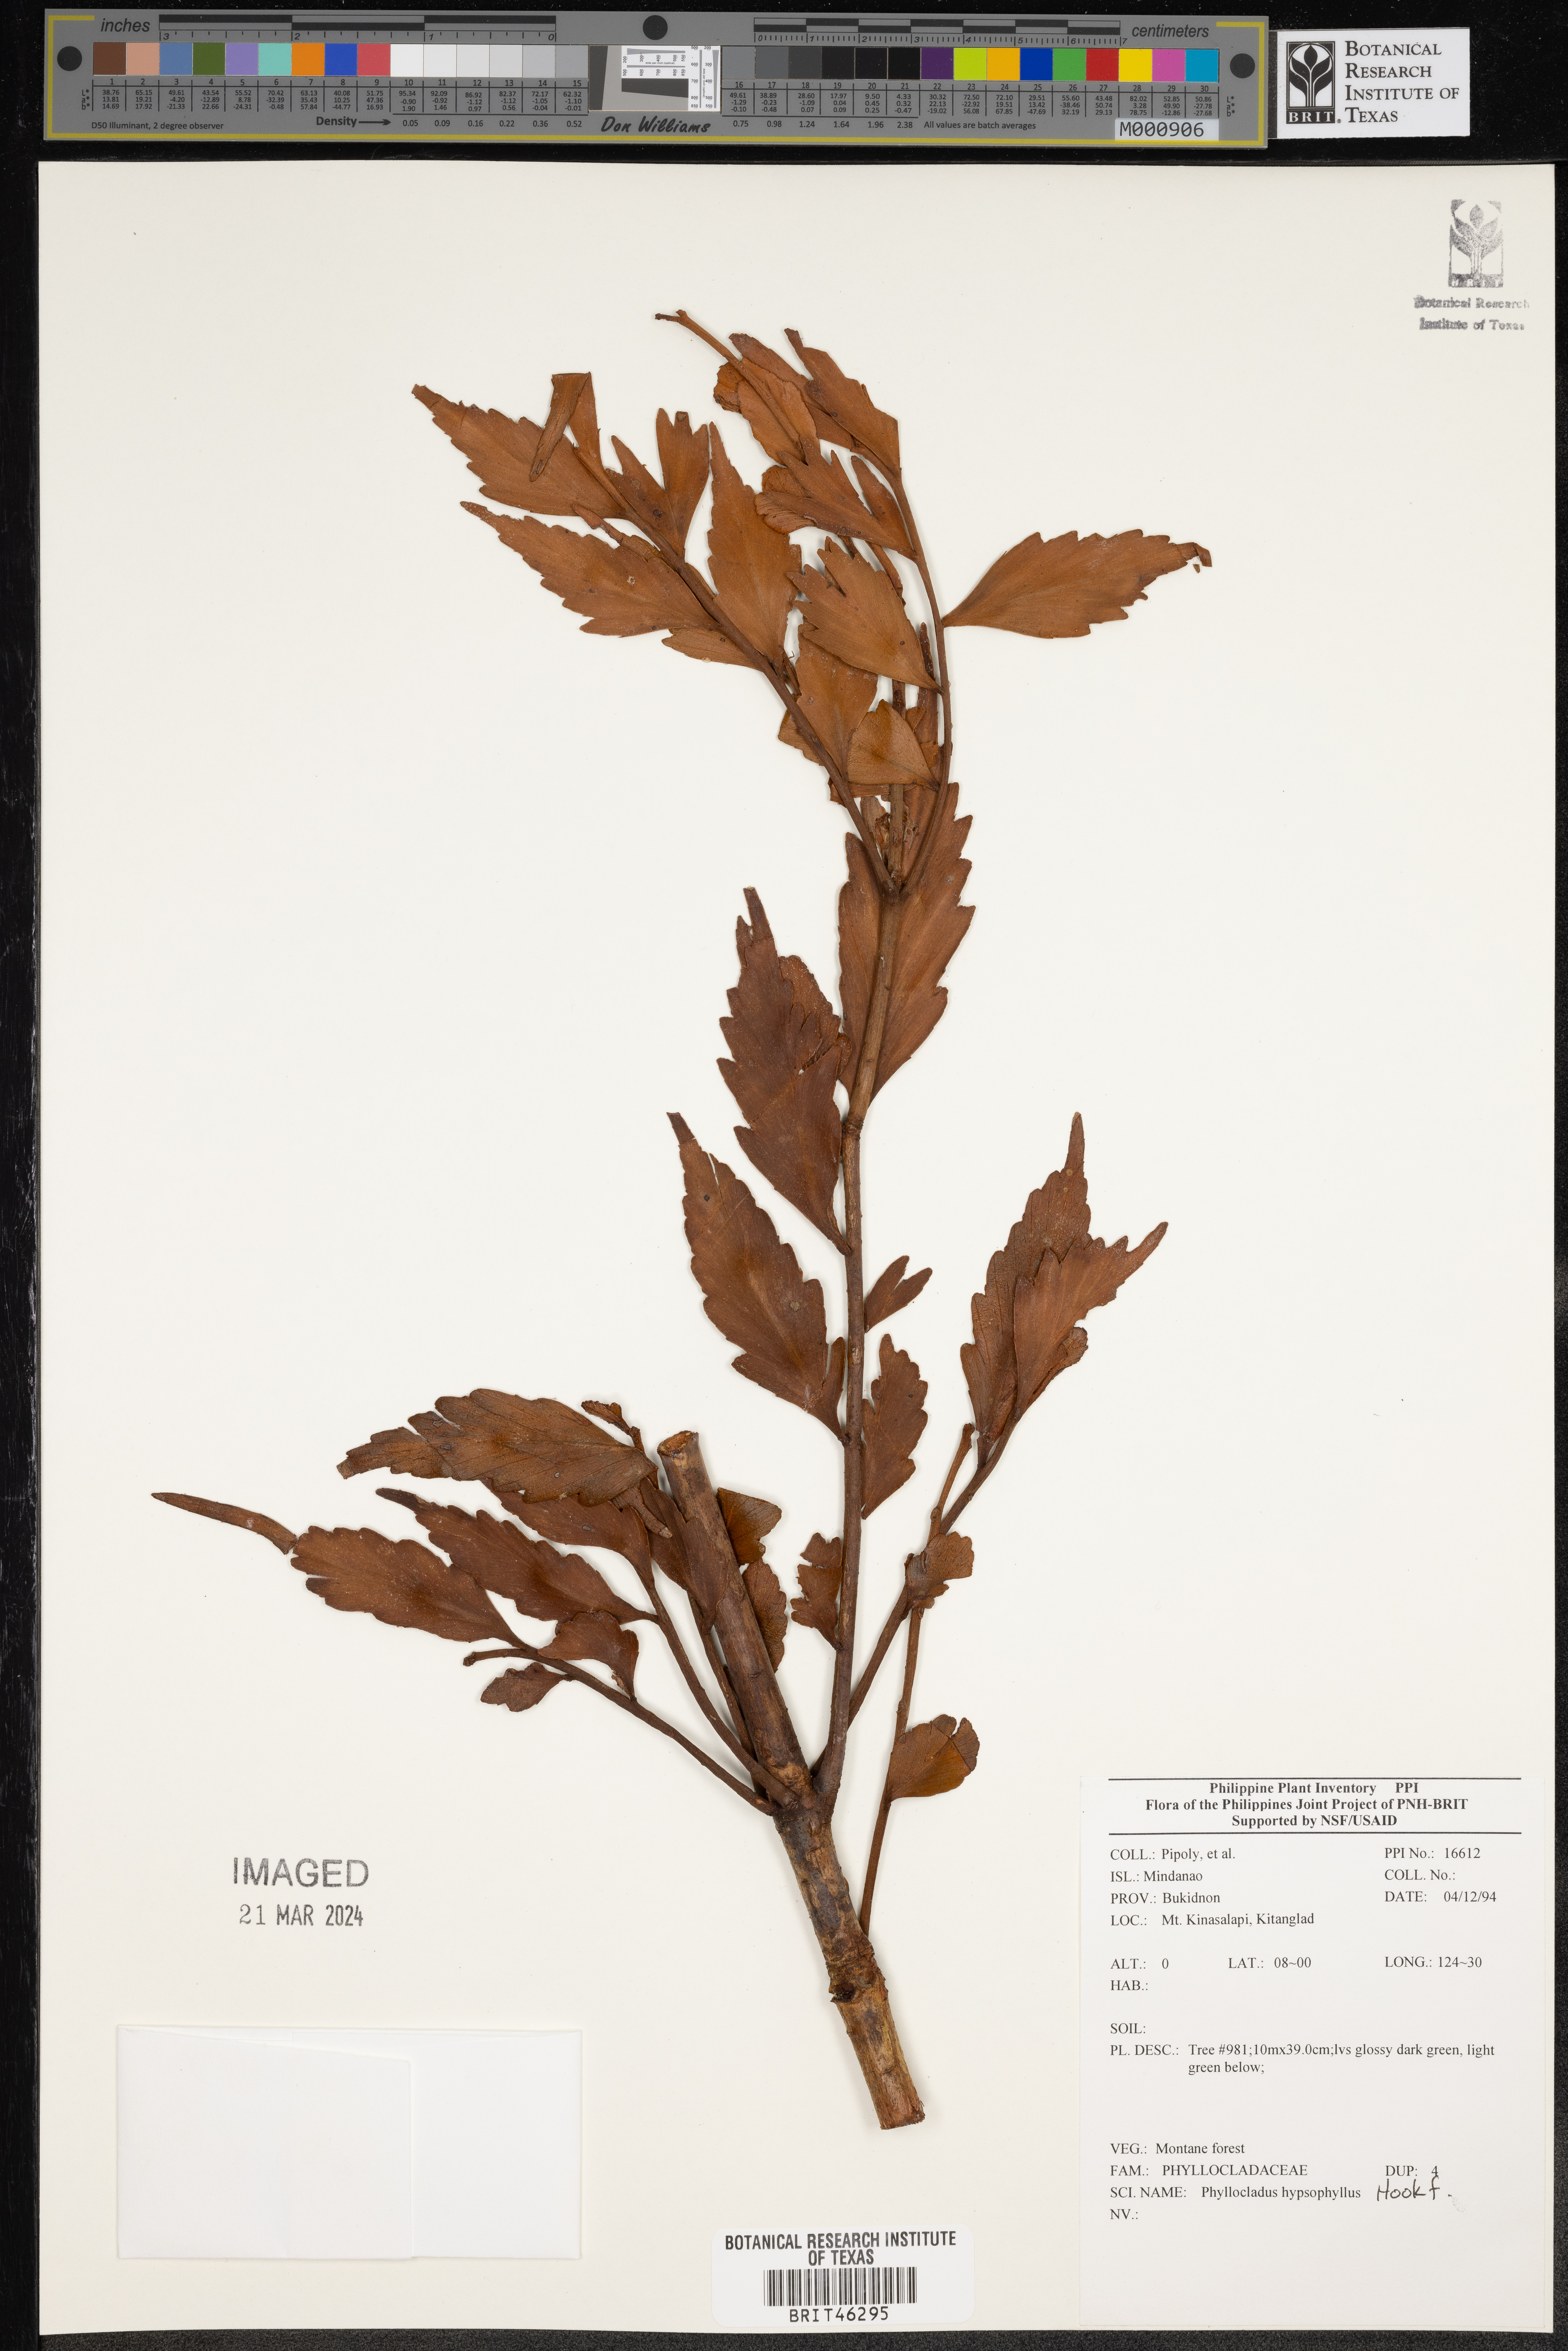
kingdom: Plantae
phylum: Tracheophyta
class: Pinopsida
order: Pinales
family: Phyllocladaceae
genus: Phyllocladus
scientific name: Phyllocladus hypophyllus
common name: Celery pine
